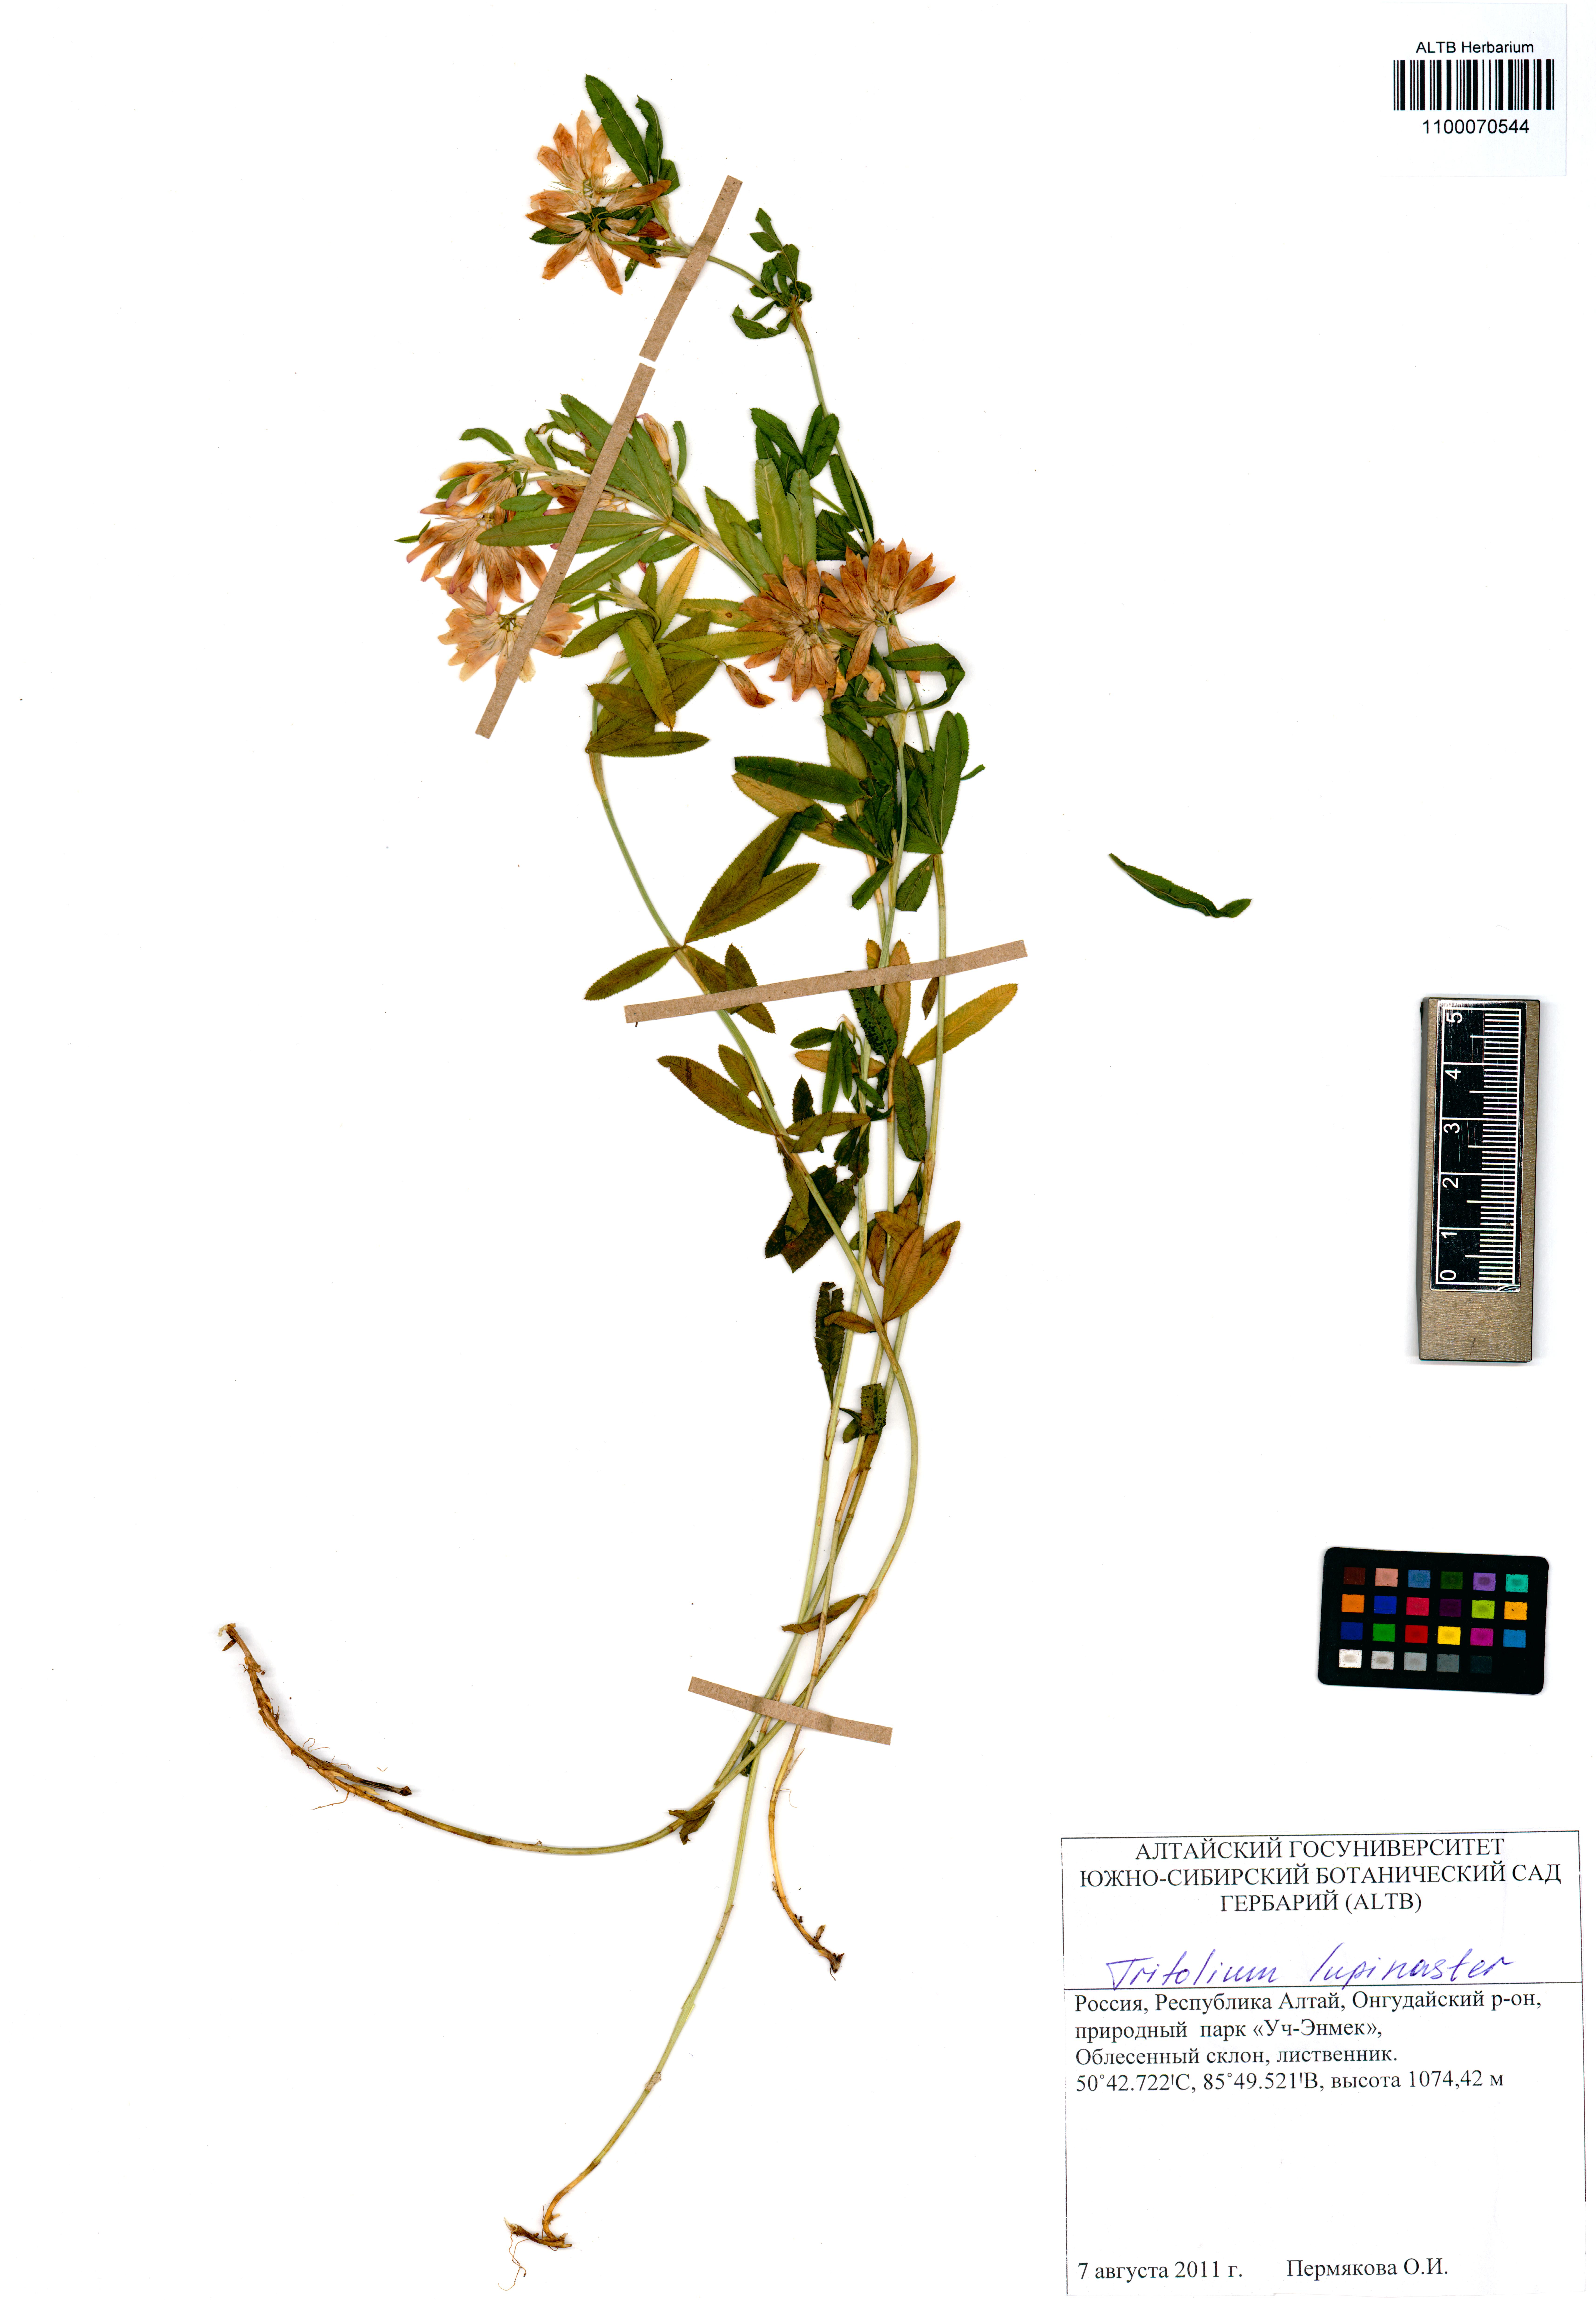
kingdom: Plantae
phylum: Tracheophyta
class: Magnoliopsida
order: Fabales
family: Fabaceae
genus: Trifolium
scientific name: Trifolium lupinaster
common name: Lupine clover
